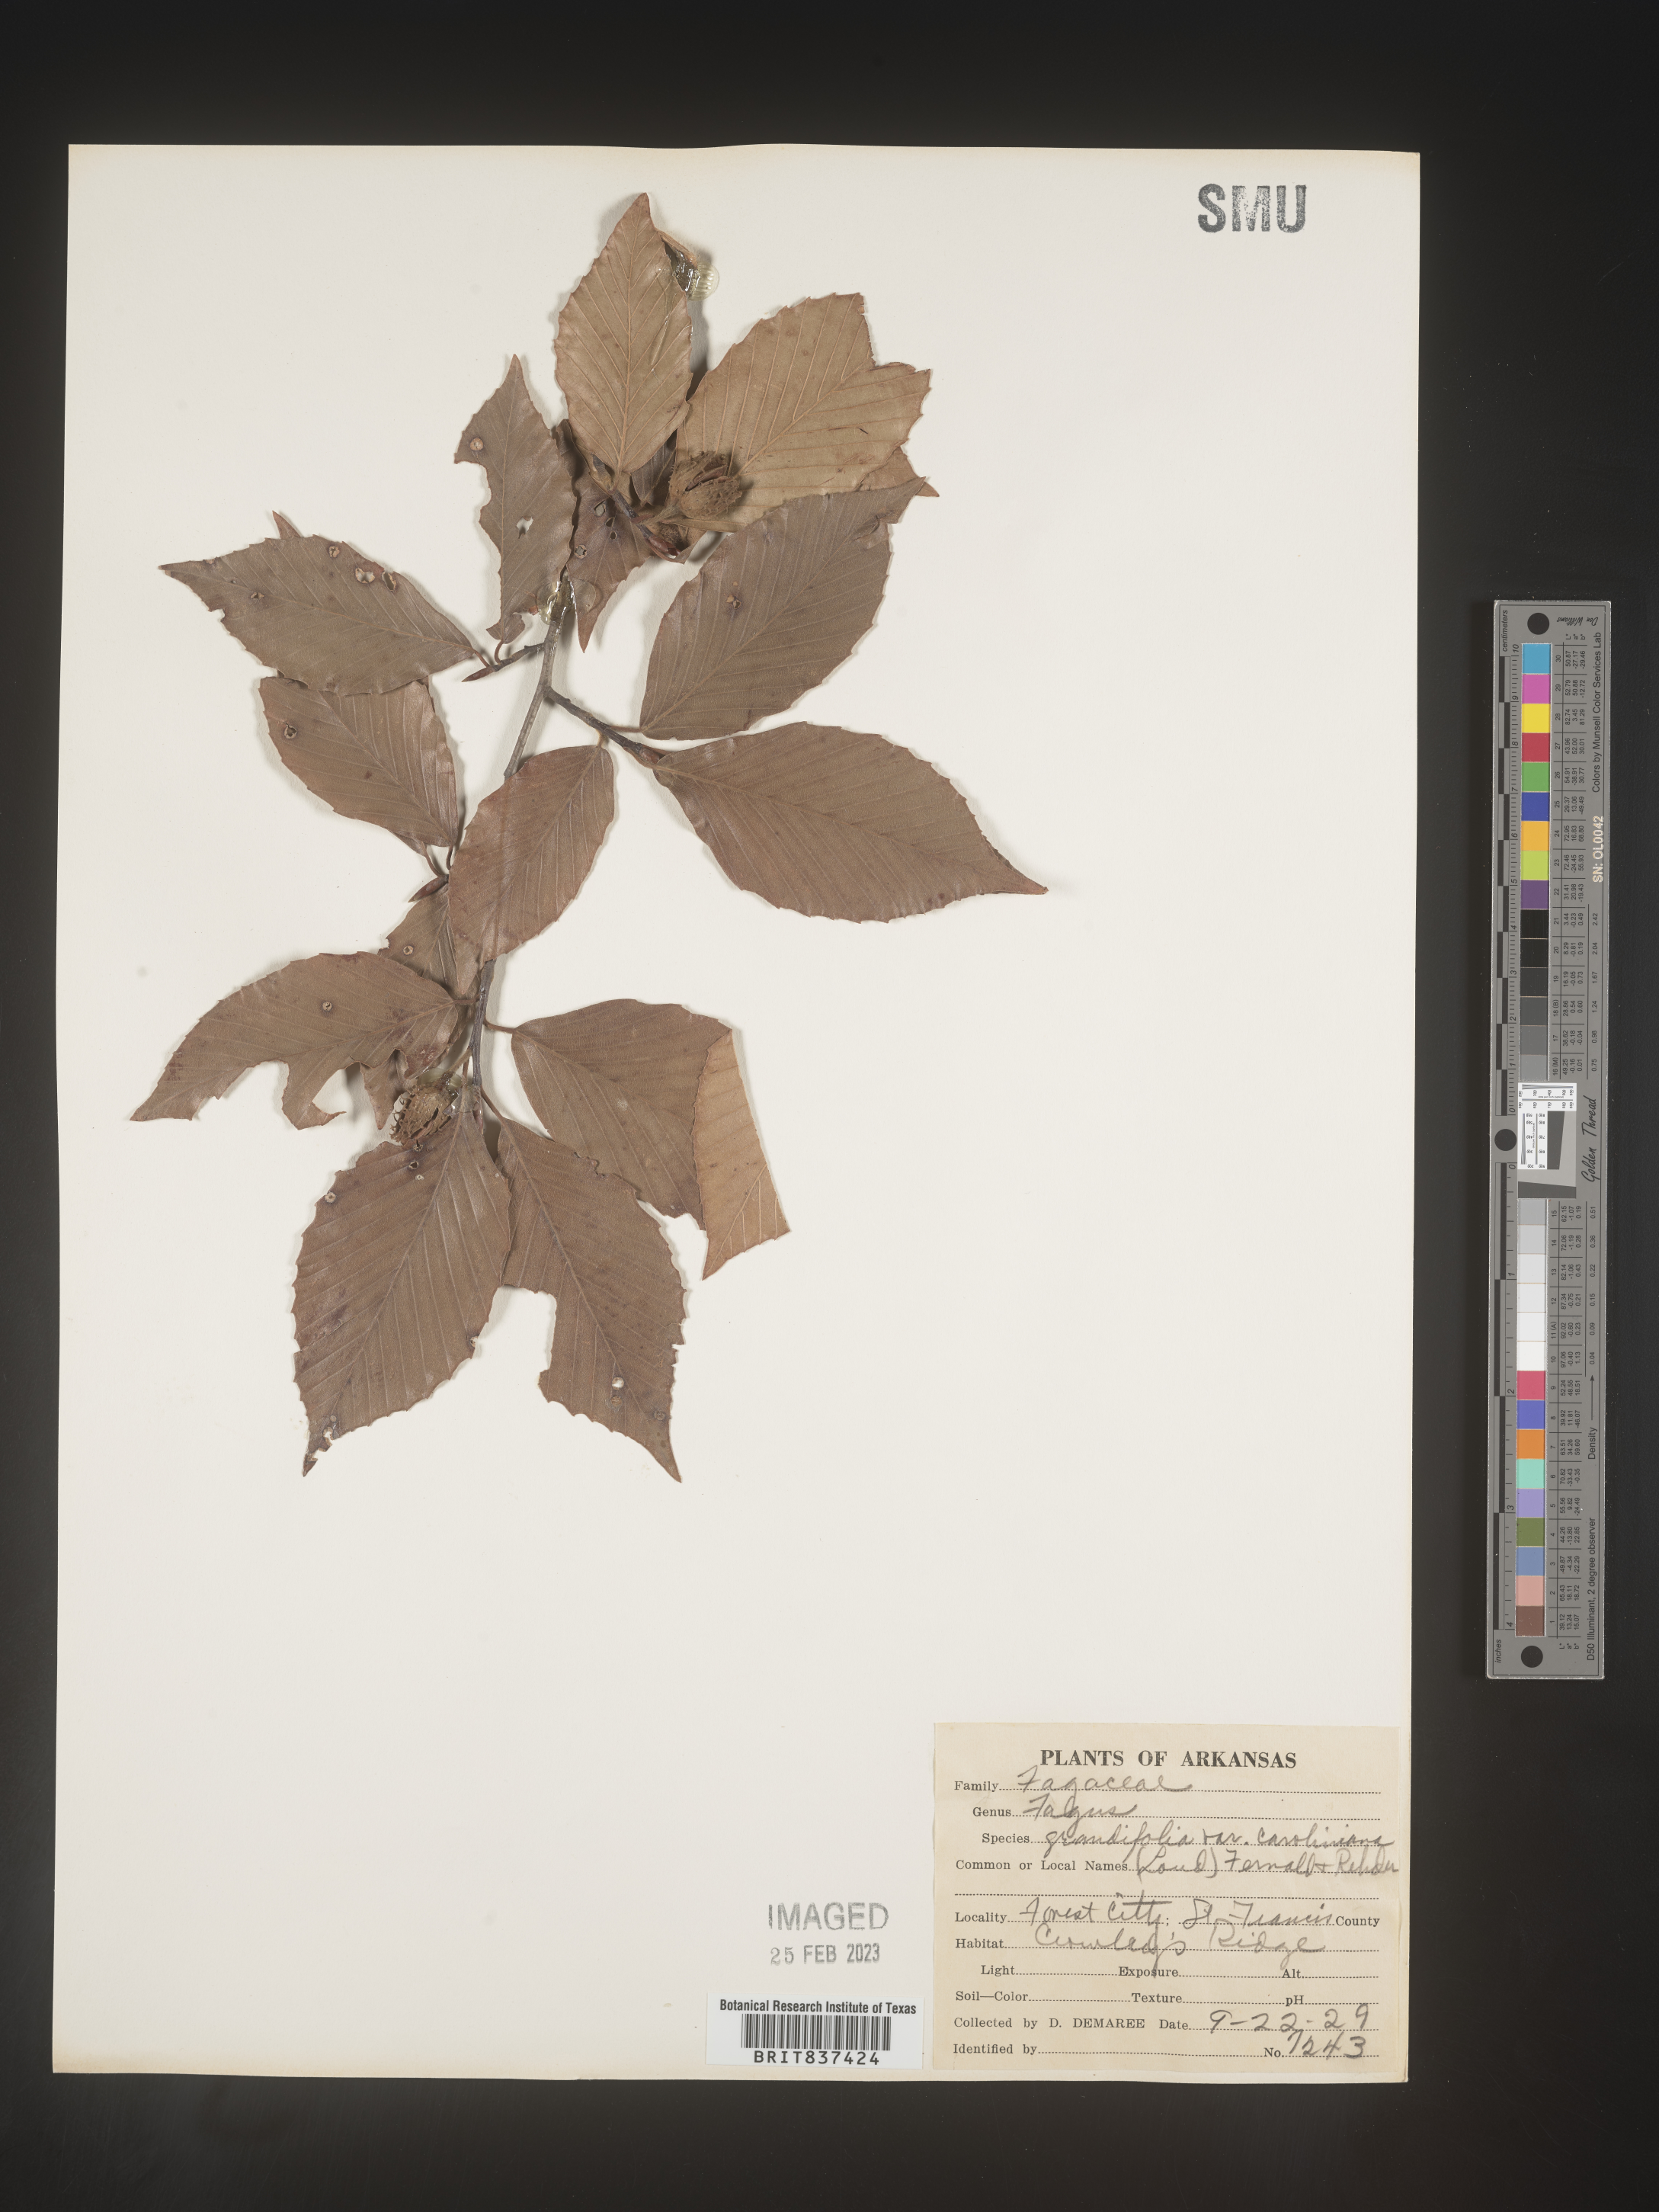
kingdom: Plantae
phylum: Tracheophyta
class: Magnoliopsida
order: Fagales
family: Fagaceae
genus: Fagus
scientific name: Fagus grandifolia
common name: American beech
